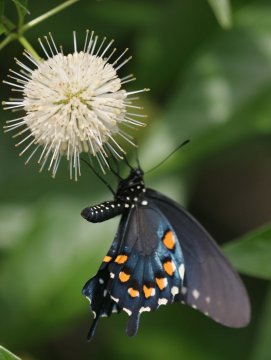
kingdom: Animalia
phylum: Arthropoda
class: Insecta
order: Lepidoptera
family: Papilionidae
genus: Battus
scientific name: Battus philenor
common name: Pipevine Swallowtail
